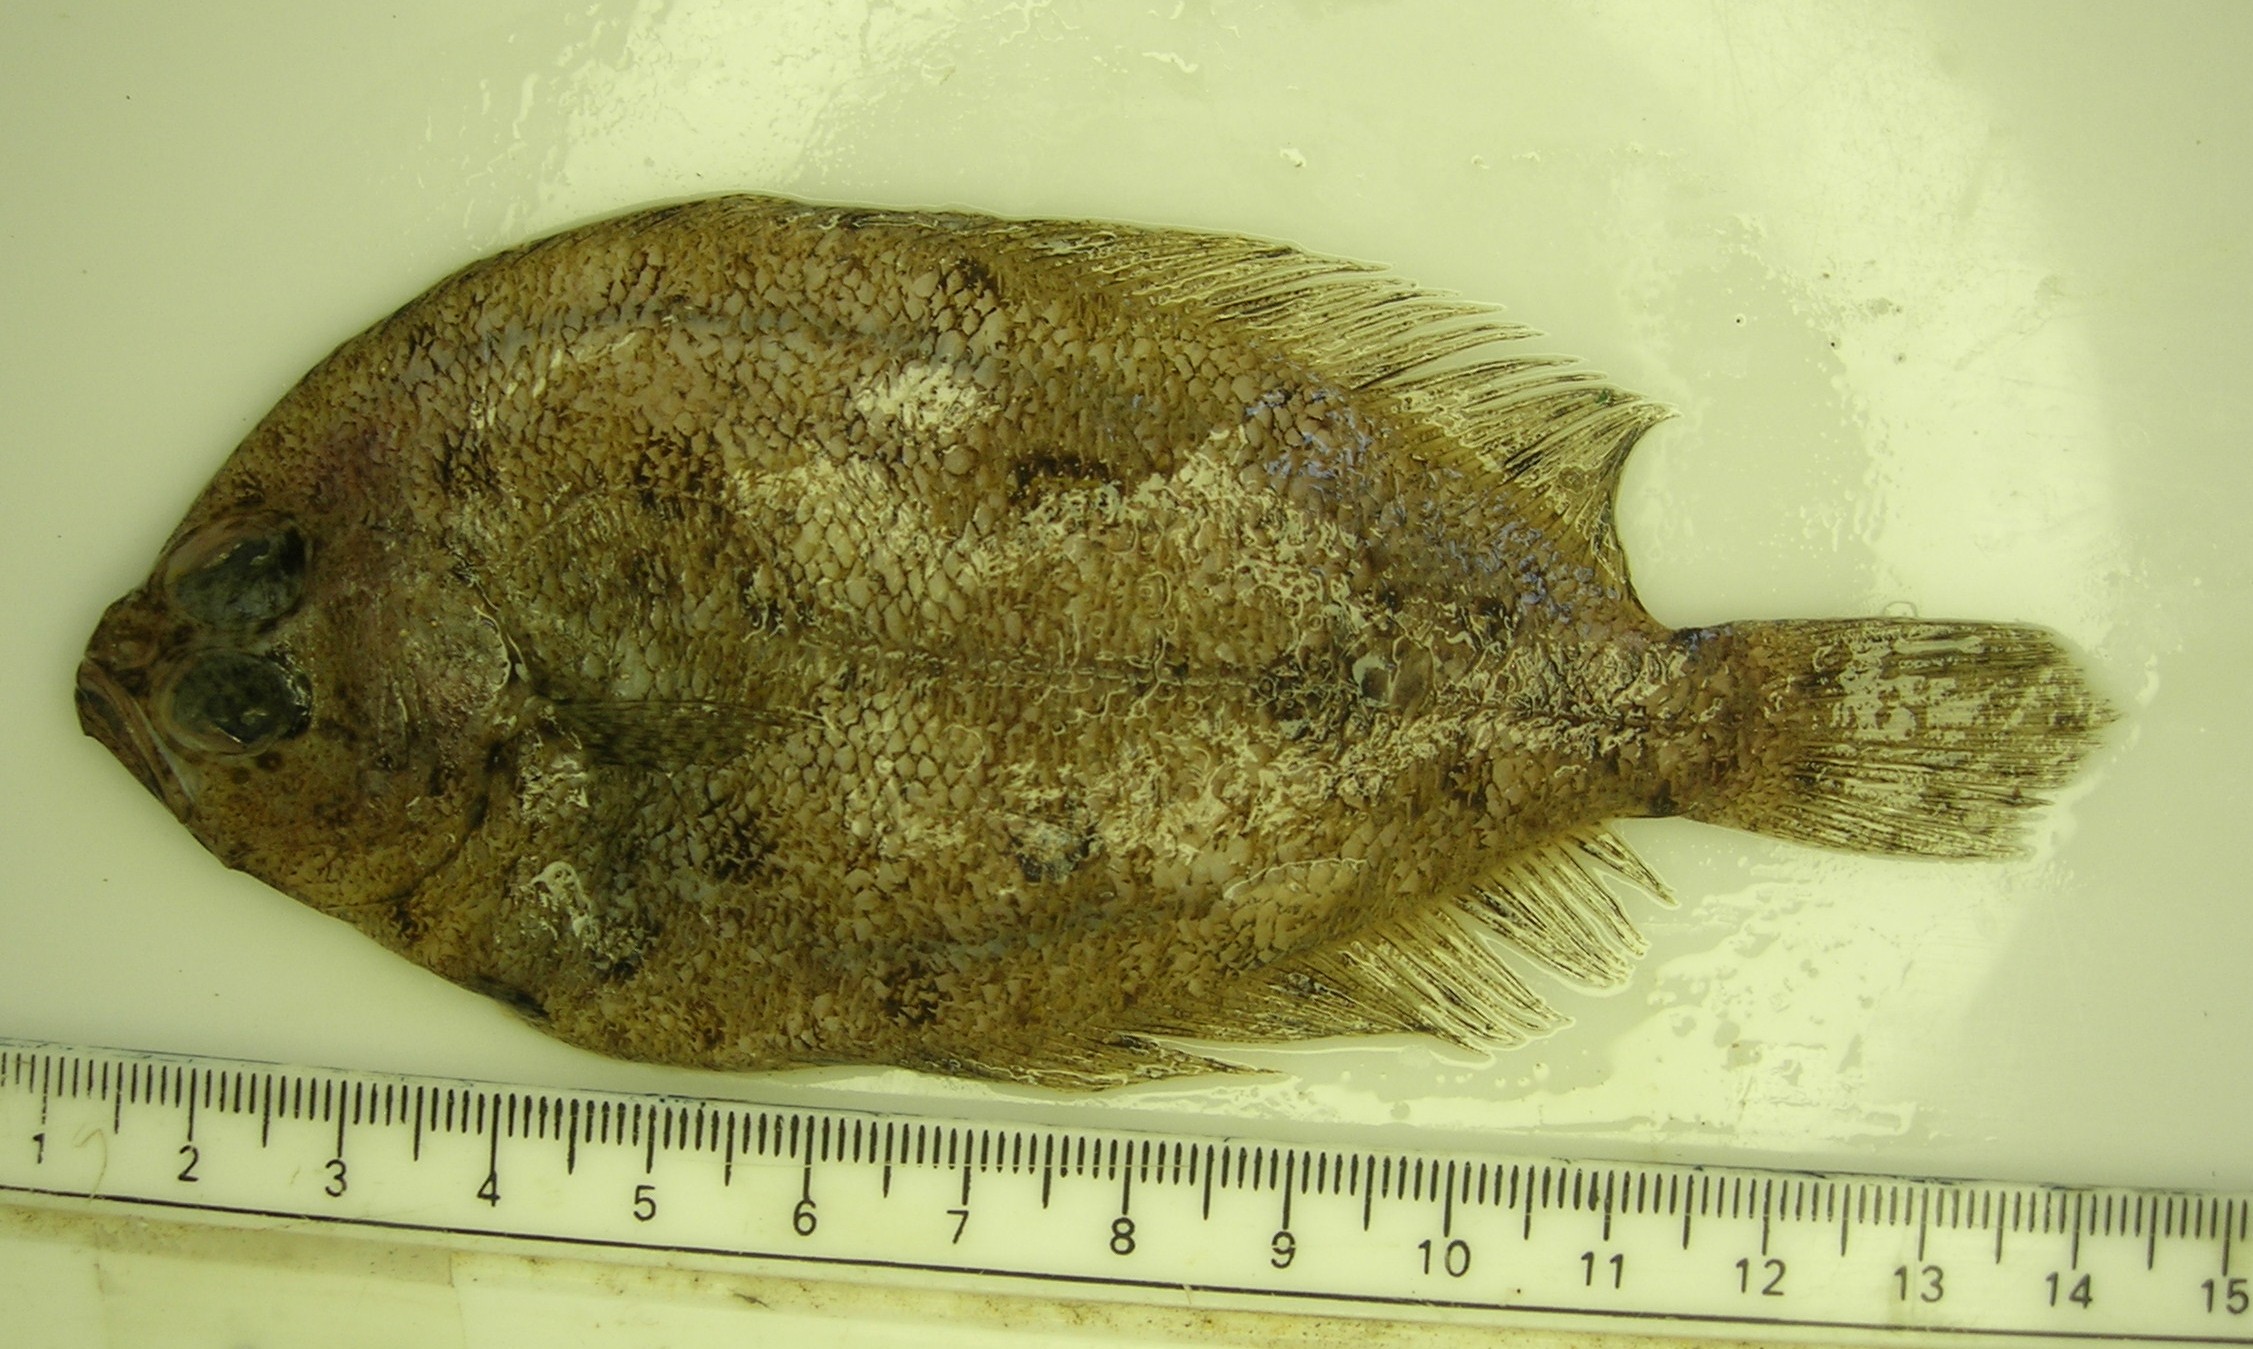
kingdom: Animalia
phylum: Chordata
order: Pleuronectiformes
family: Paralichthyidae
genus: Pseudorhombus
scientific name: Pseudorhombus natalensis
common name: Natal flounder
